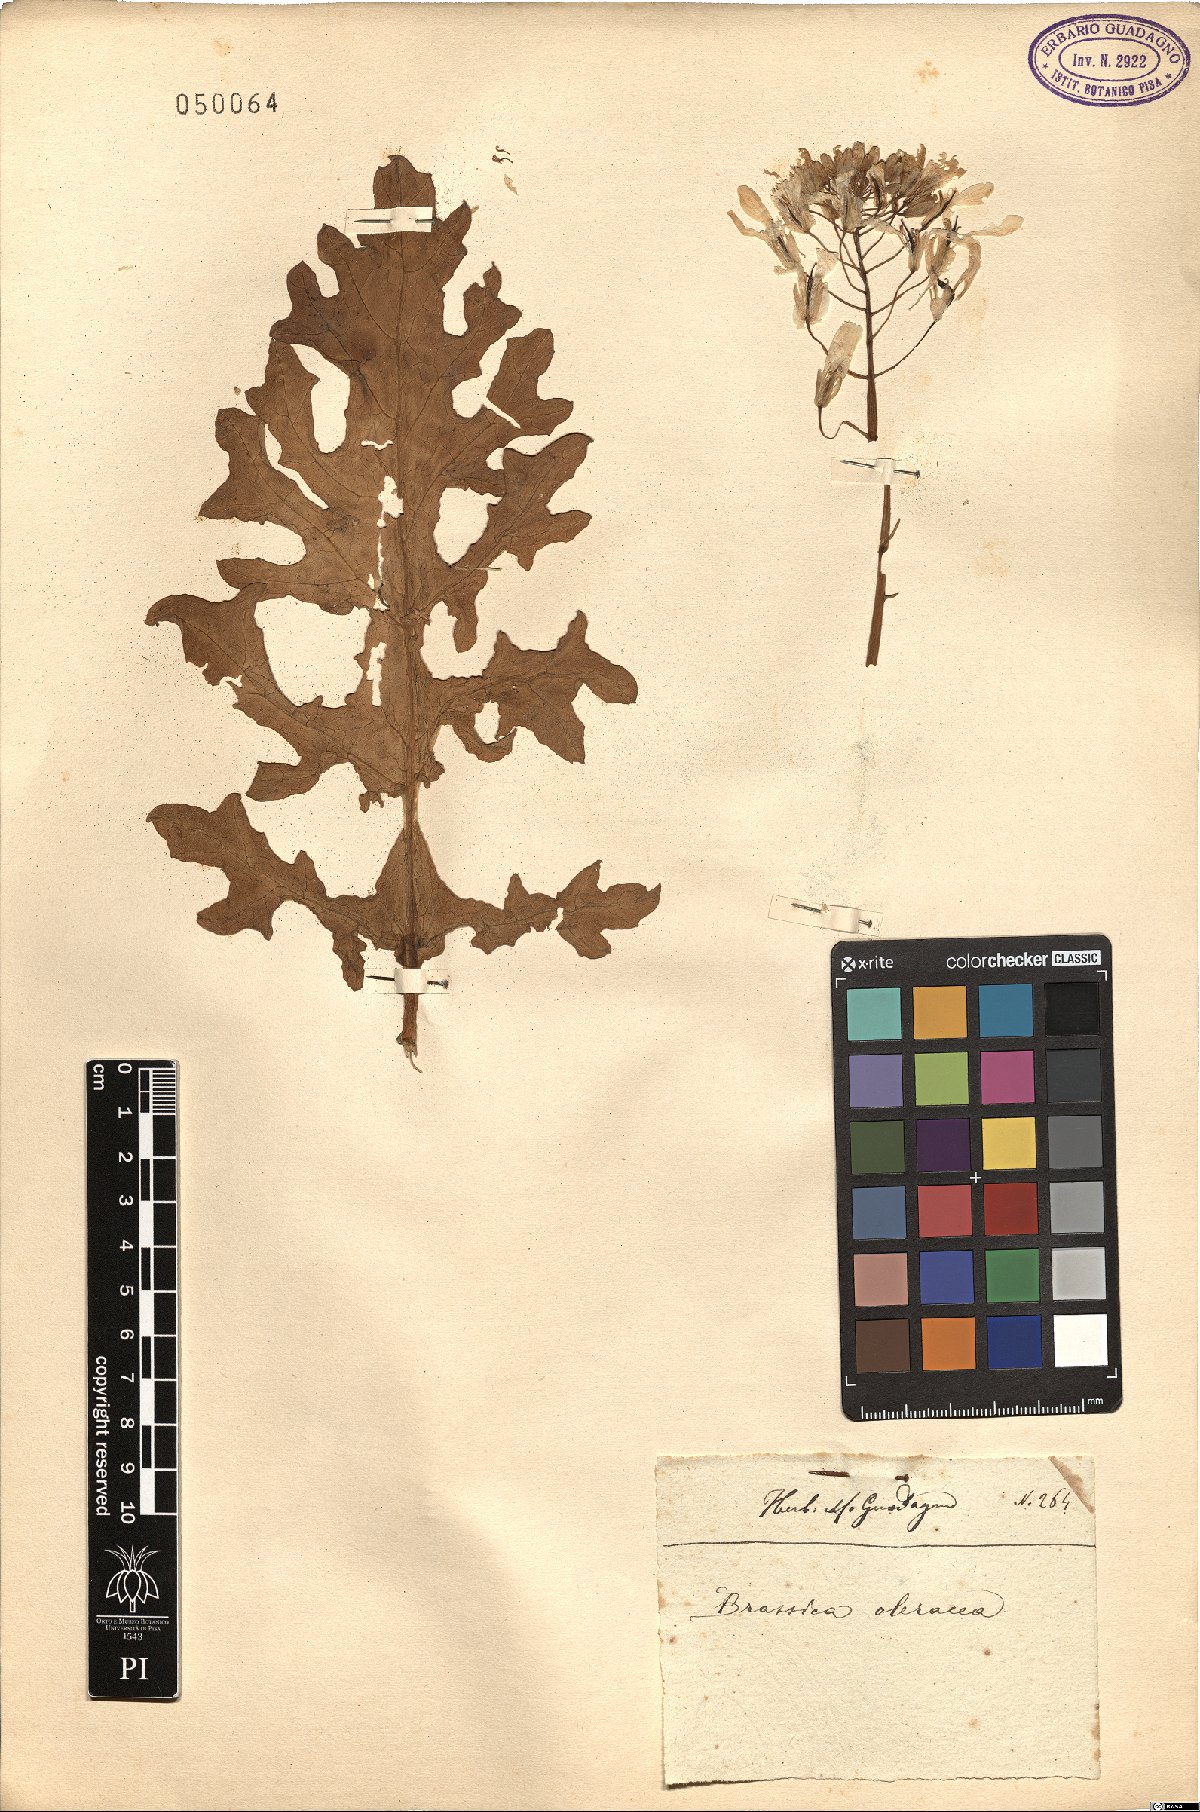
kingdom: Plantae
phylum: Tracheophyta
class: Magnoliopsida
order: Brassicales
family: Brassicaceae
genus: Brassica
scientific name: Brassica oleracea
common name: Cabbage
